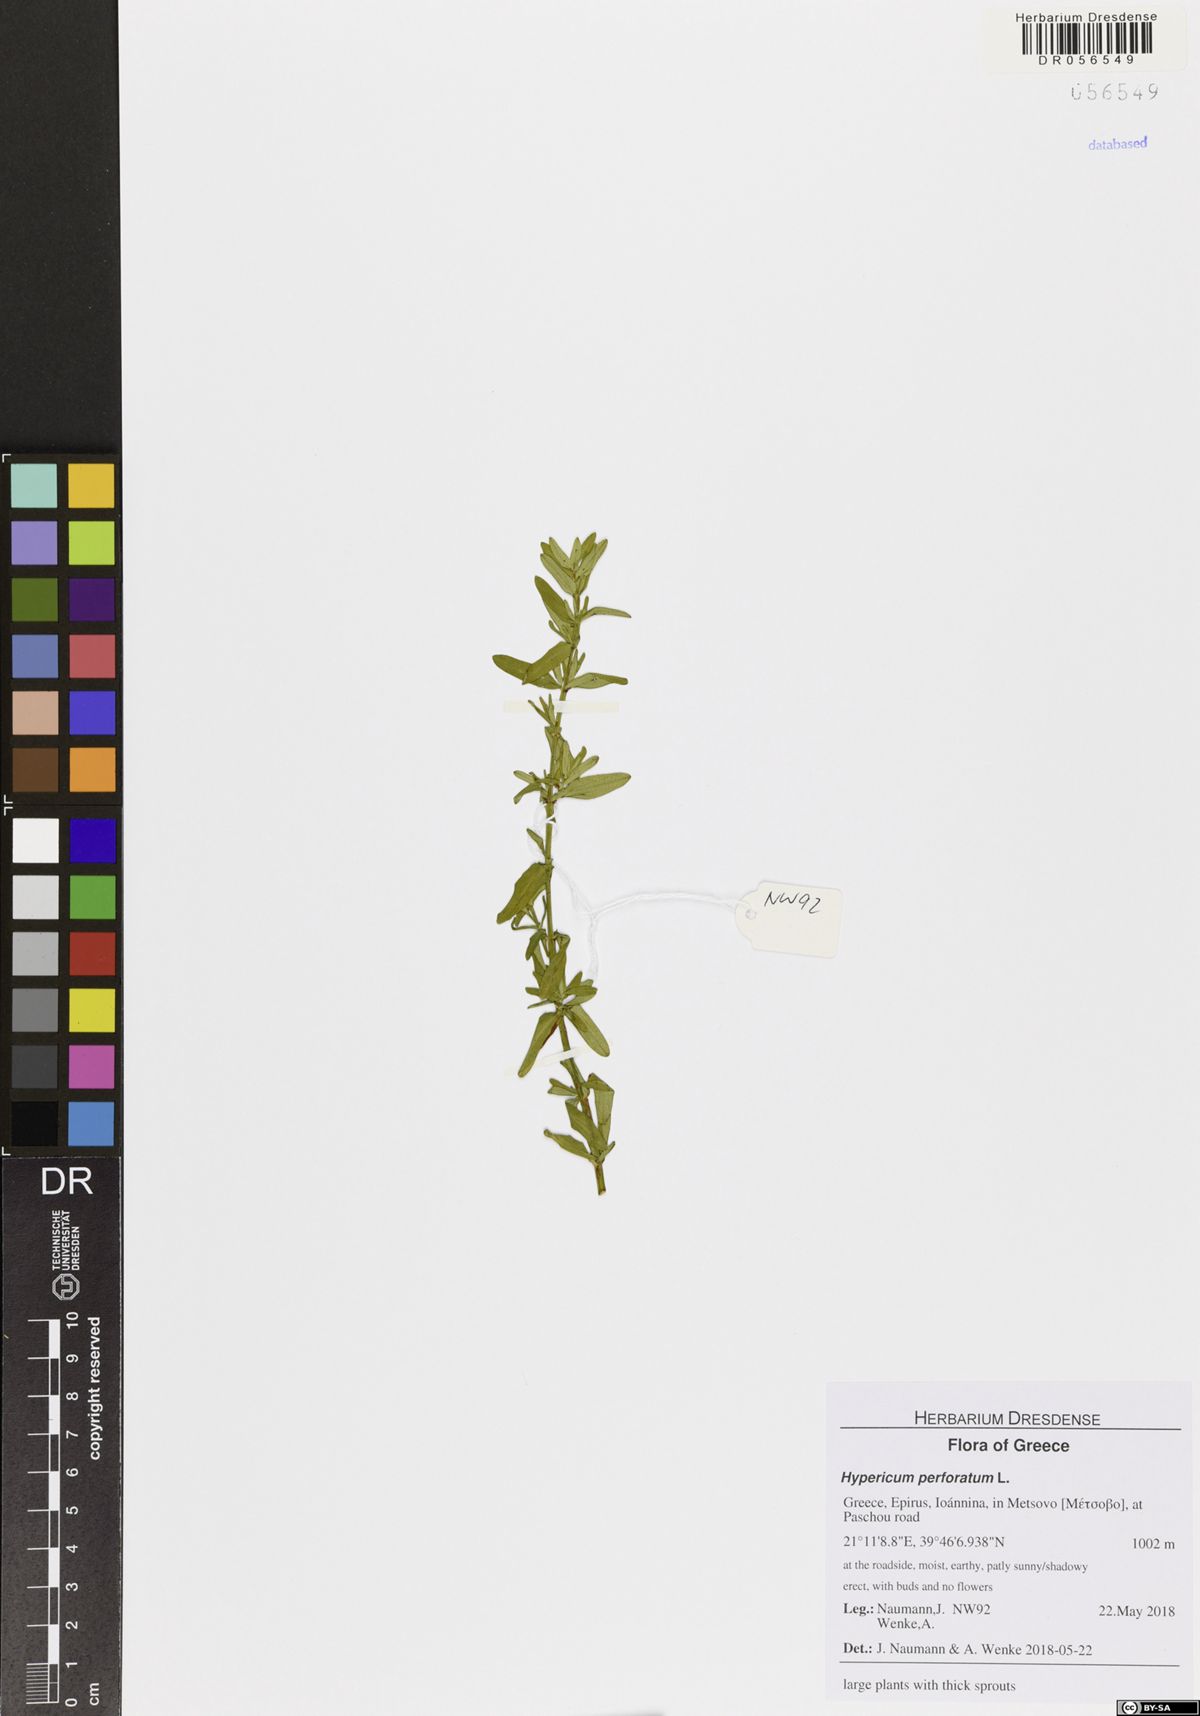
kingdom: Plantae
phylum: Tracheophyta
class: Magnoliopsida
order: Malpighiales
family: Hypericaceae
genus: Hypericum
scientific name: Hypericum perforatum
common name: Common st. johnswort
